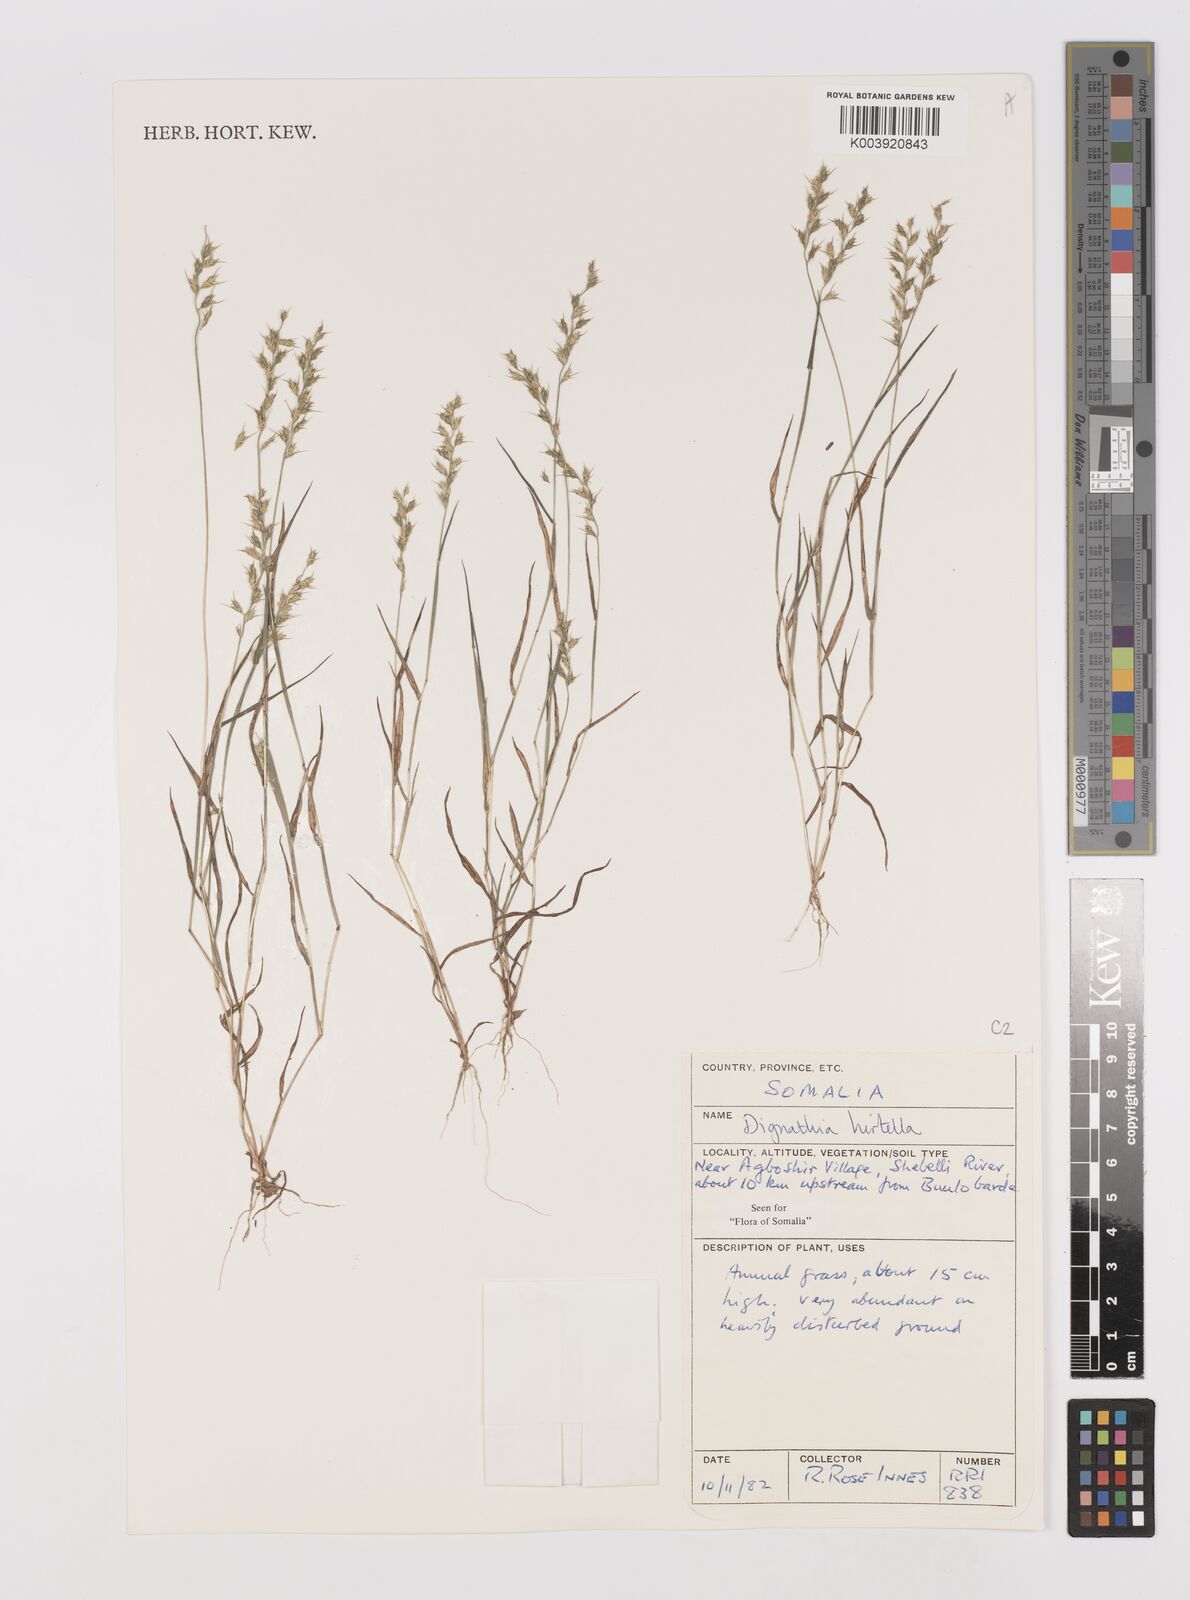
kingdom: Plantae
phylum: Tracheophyta
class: Liliopsida
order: Poales
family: Poaceae
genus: Dignathia
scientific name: Dignathia hirtella
